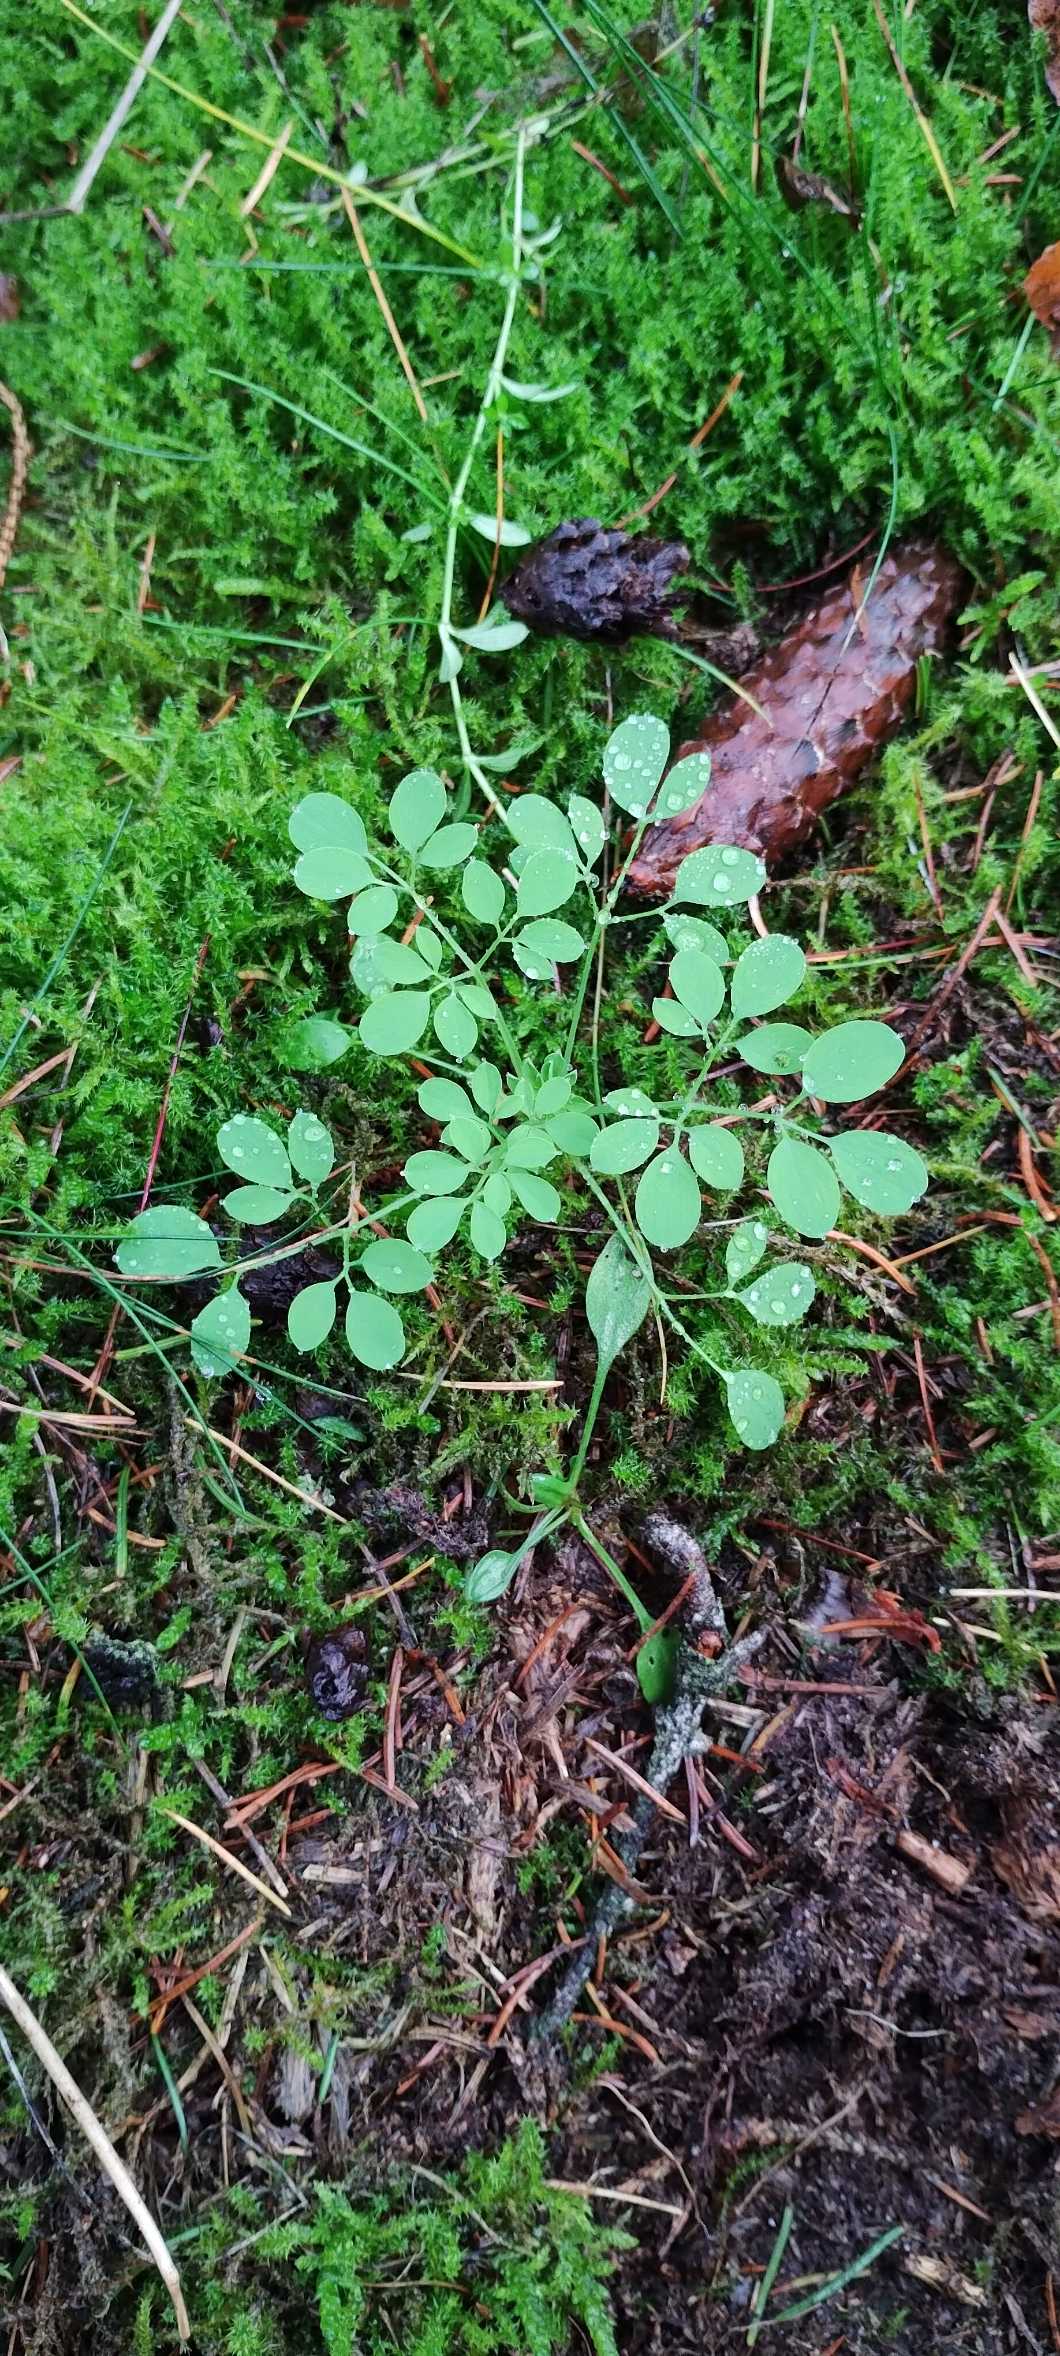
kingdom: Plantae
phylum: Tracheophyta
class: Magnoliopsida
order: Ranunculales
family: Papaveraceae
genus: Ceratocapnos
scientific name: Ceratocapnos claviculata
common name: Klatrende lærkespore
